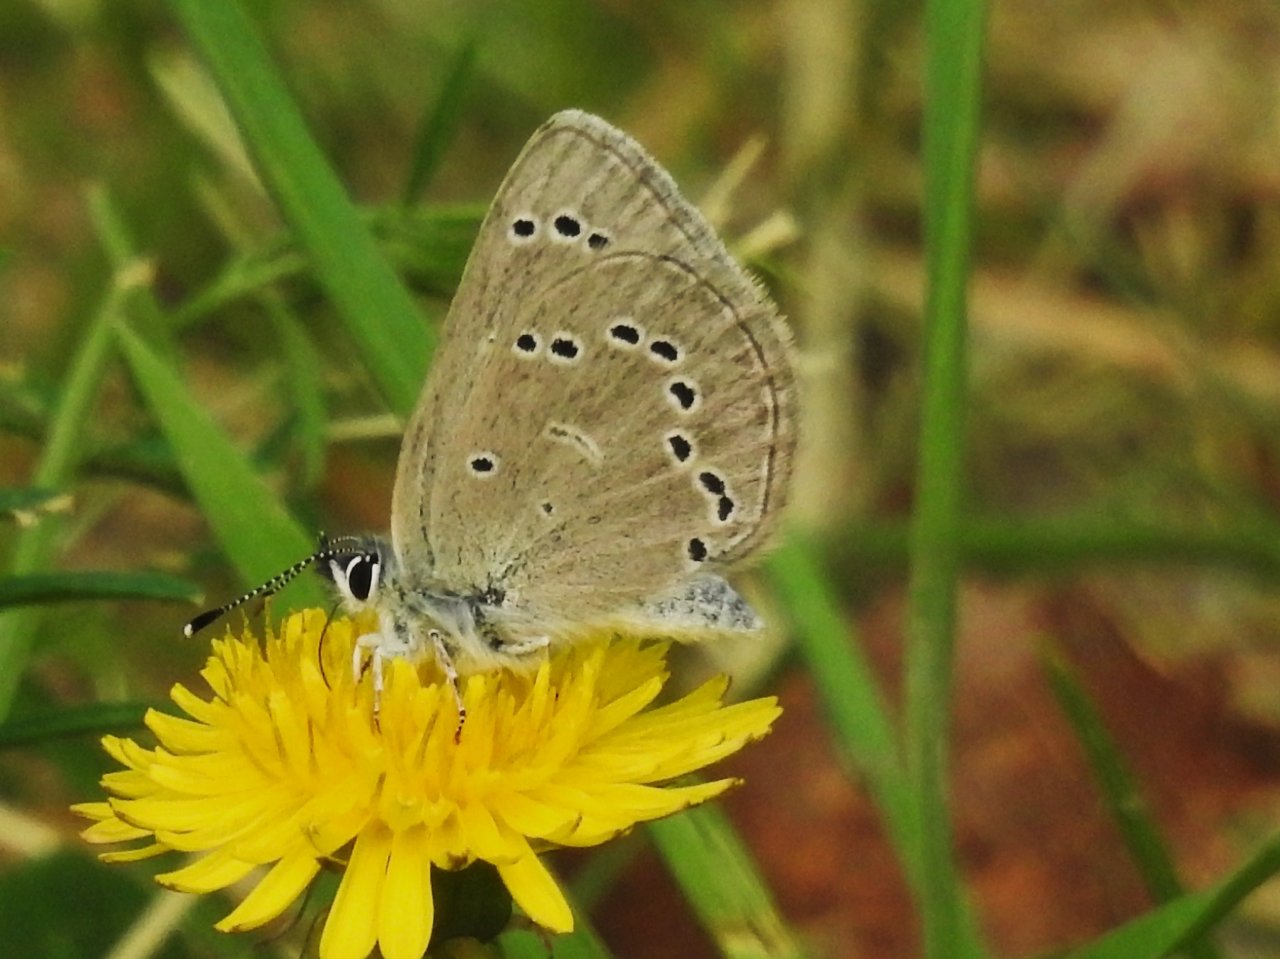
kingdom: Animalia
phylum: Arthropoda
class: Insecta
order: Lepidoptera
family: Lycaenidae
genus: Glaucopsyche
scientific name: Glaucopsyche lygdamus
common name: Silvery Blue
